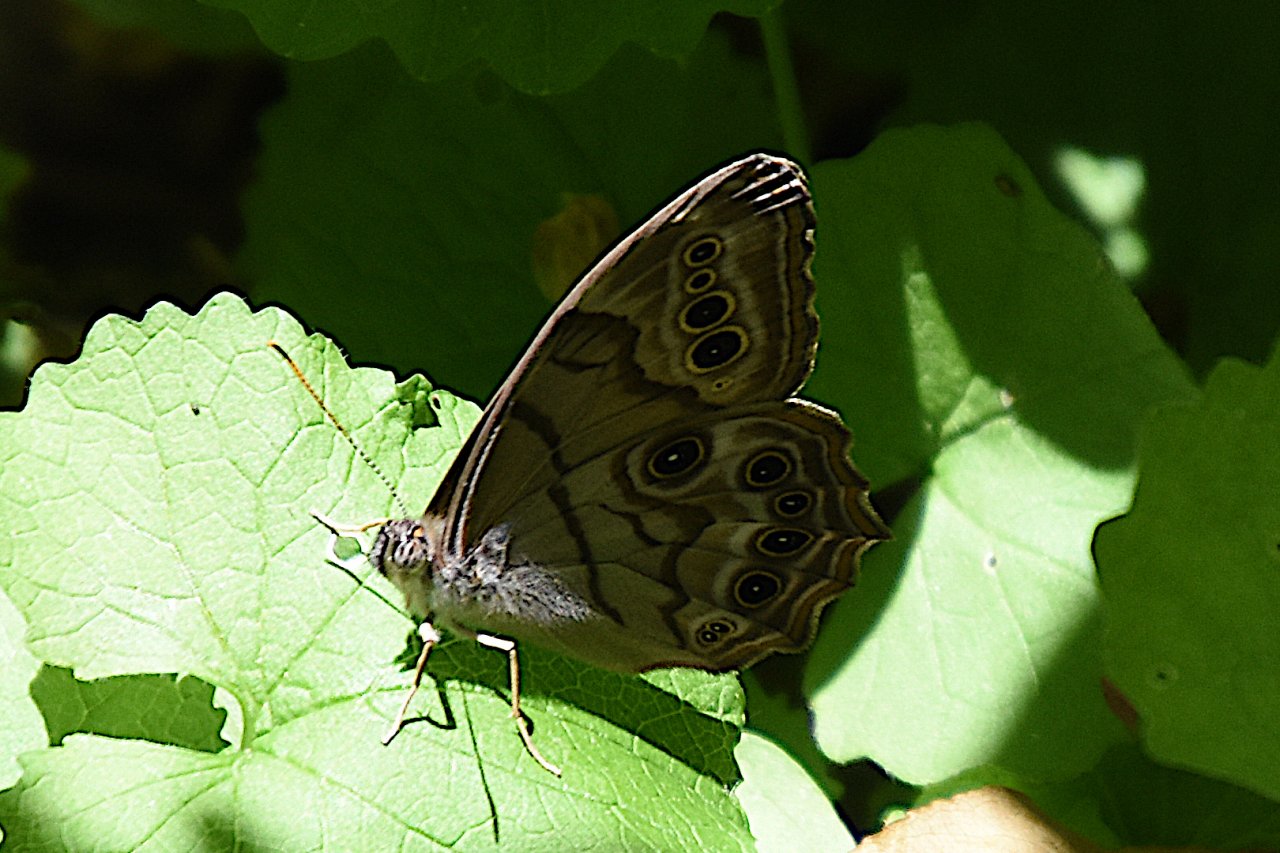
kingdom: Animalia
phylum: Arthropoda
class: Insecta
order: Lepidoptera
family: Nymphalidae
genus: Lethe
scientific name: Lethe anthedon
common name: Northern Pearly-Eye
